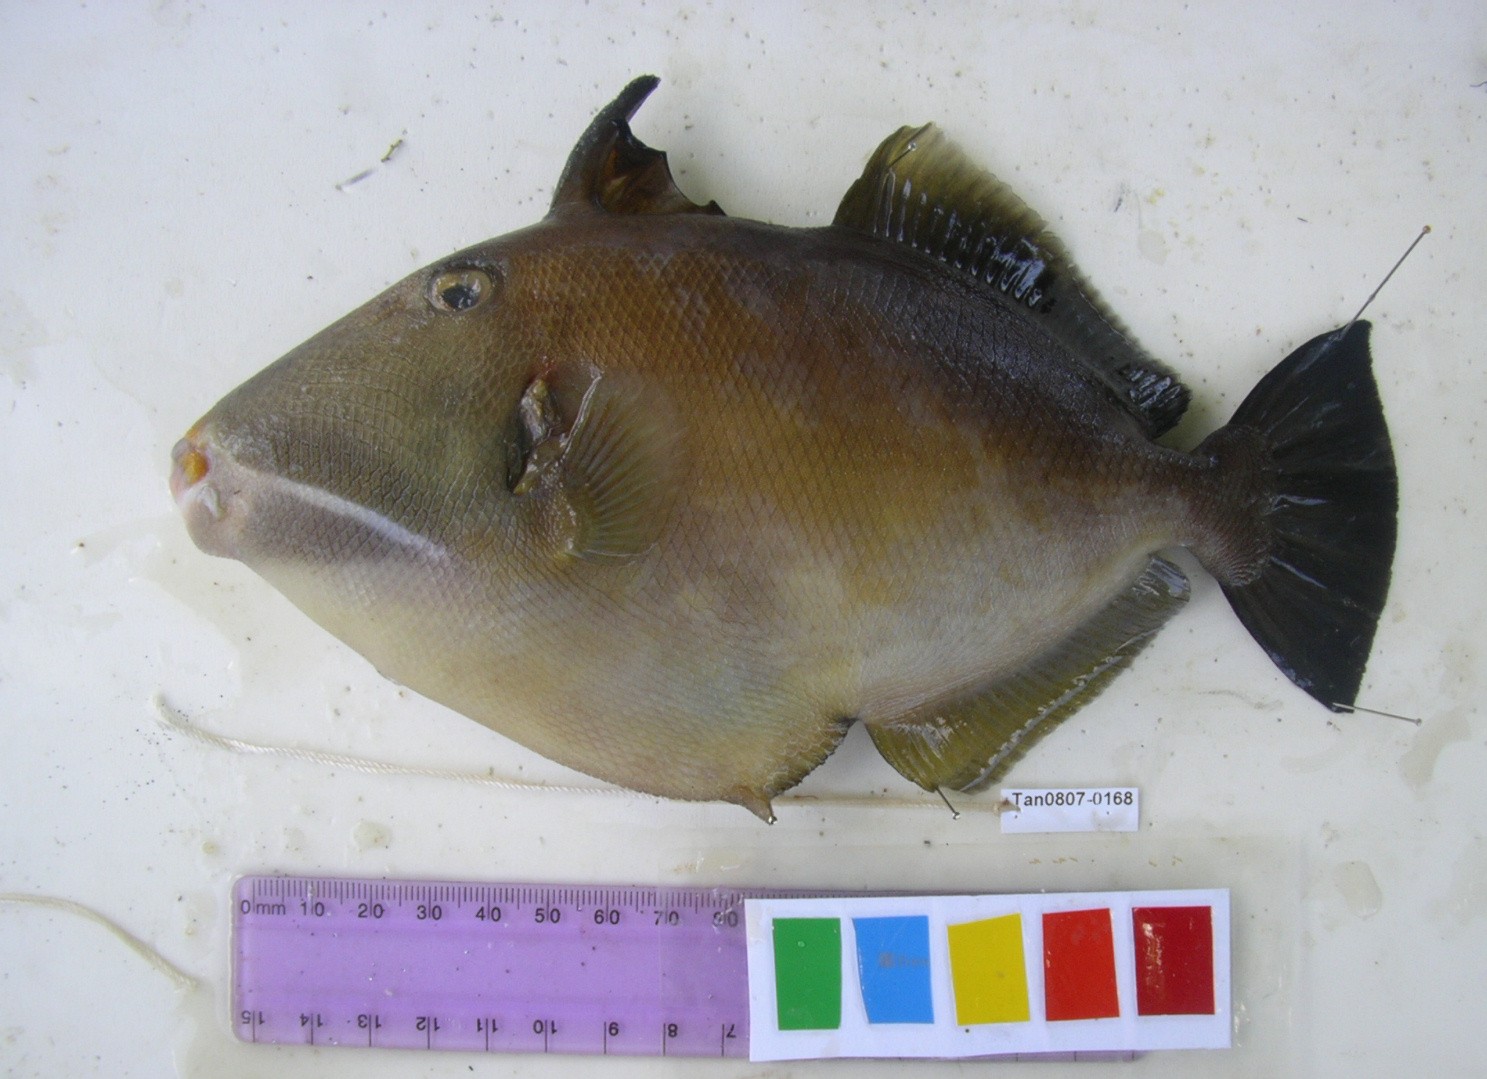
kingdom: Animalia
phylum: Chordata
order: Tetraodontiformes
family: Balistidae
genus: Sufflamen
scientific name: Sufflamen fraenatum
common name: Bridle triggerfish
